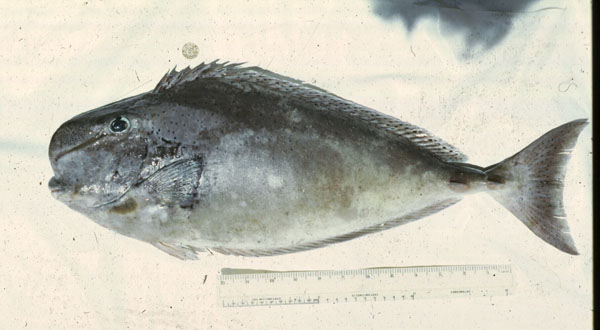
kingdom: Animalia
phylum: Chordata
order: Perciformes
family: Acanthuridae
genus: Naso
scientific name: Naso tuberosus
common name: Humpnose unicornfish
